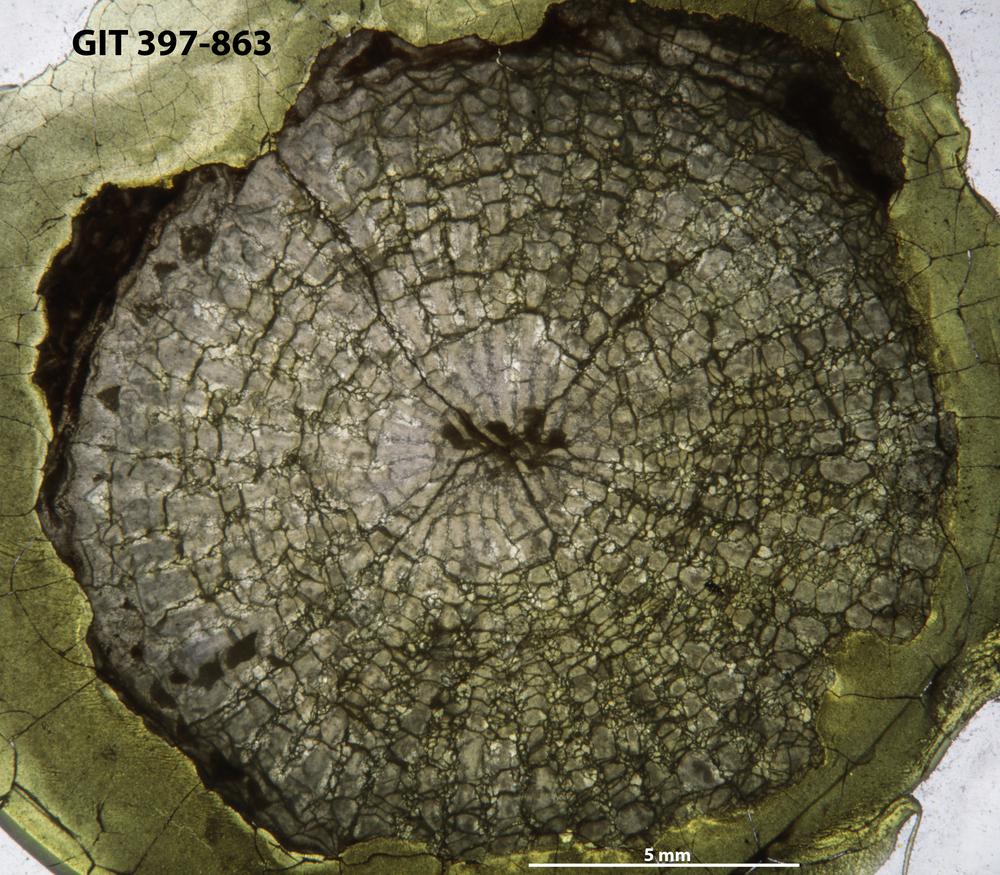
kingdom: Animalia
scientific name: Animalia
